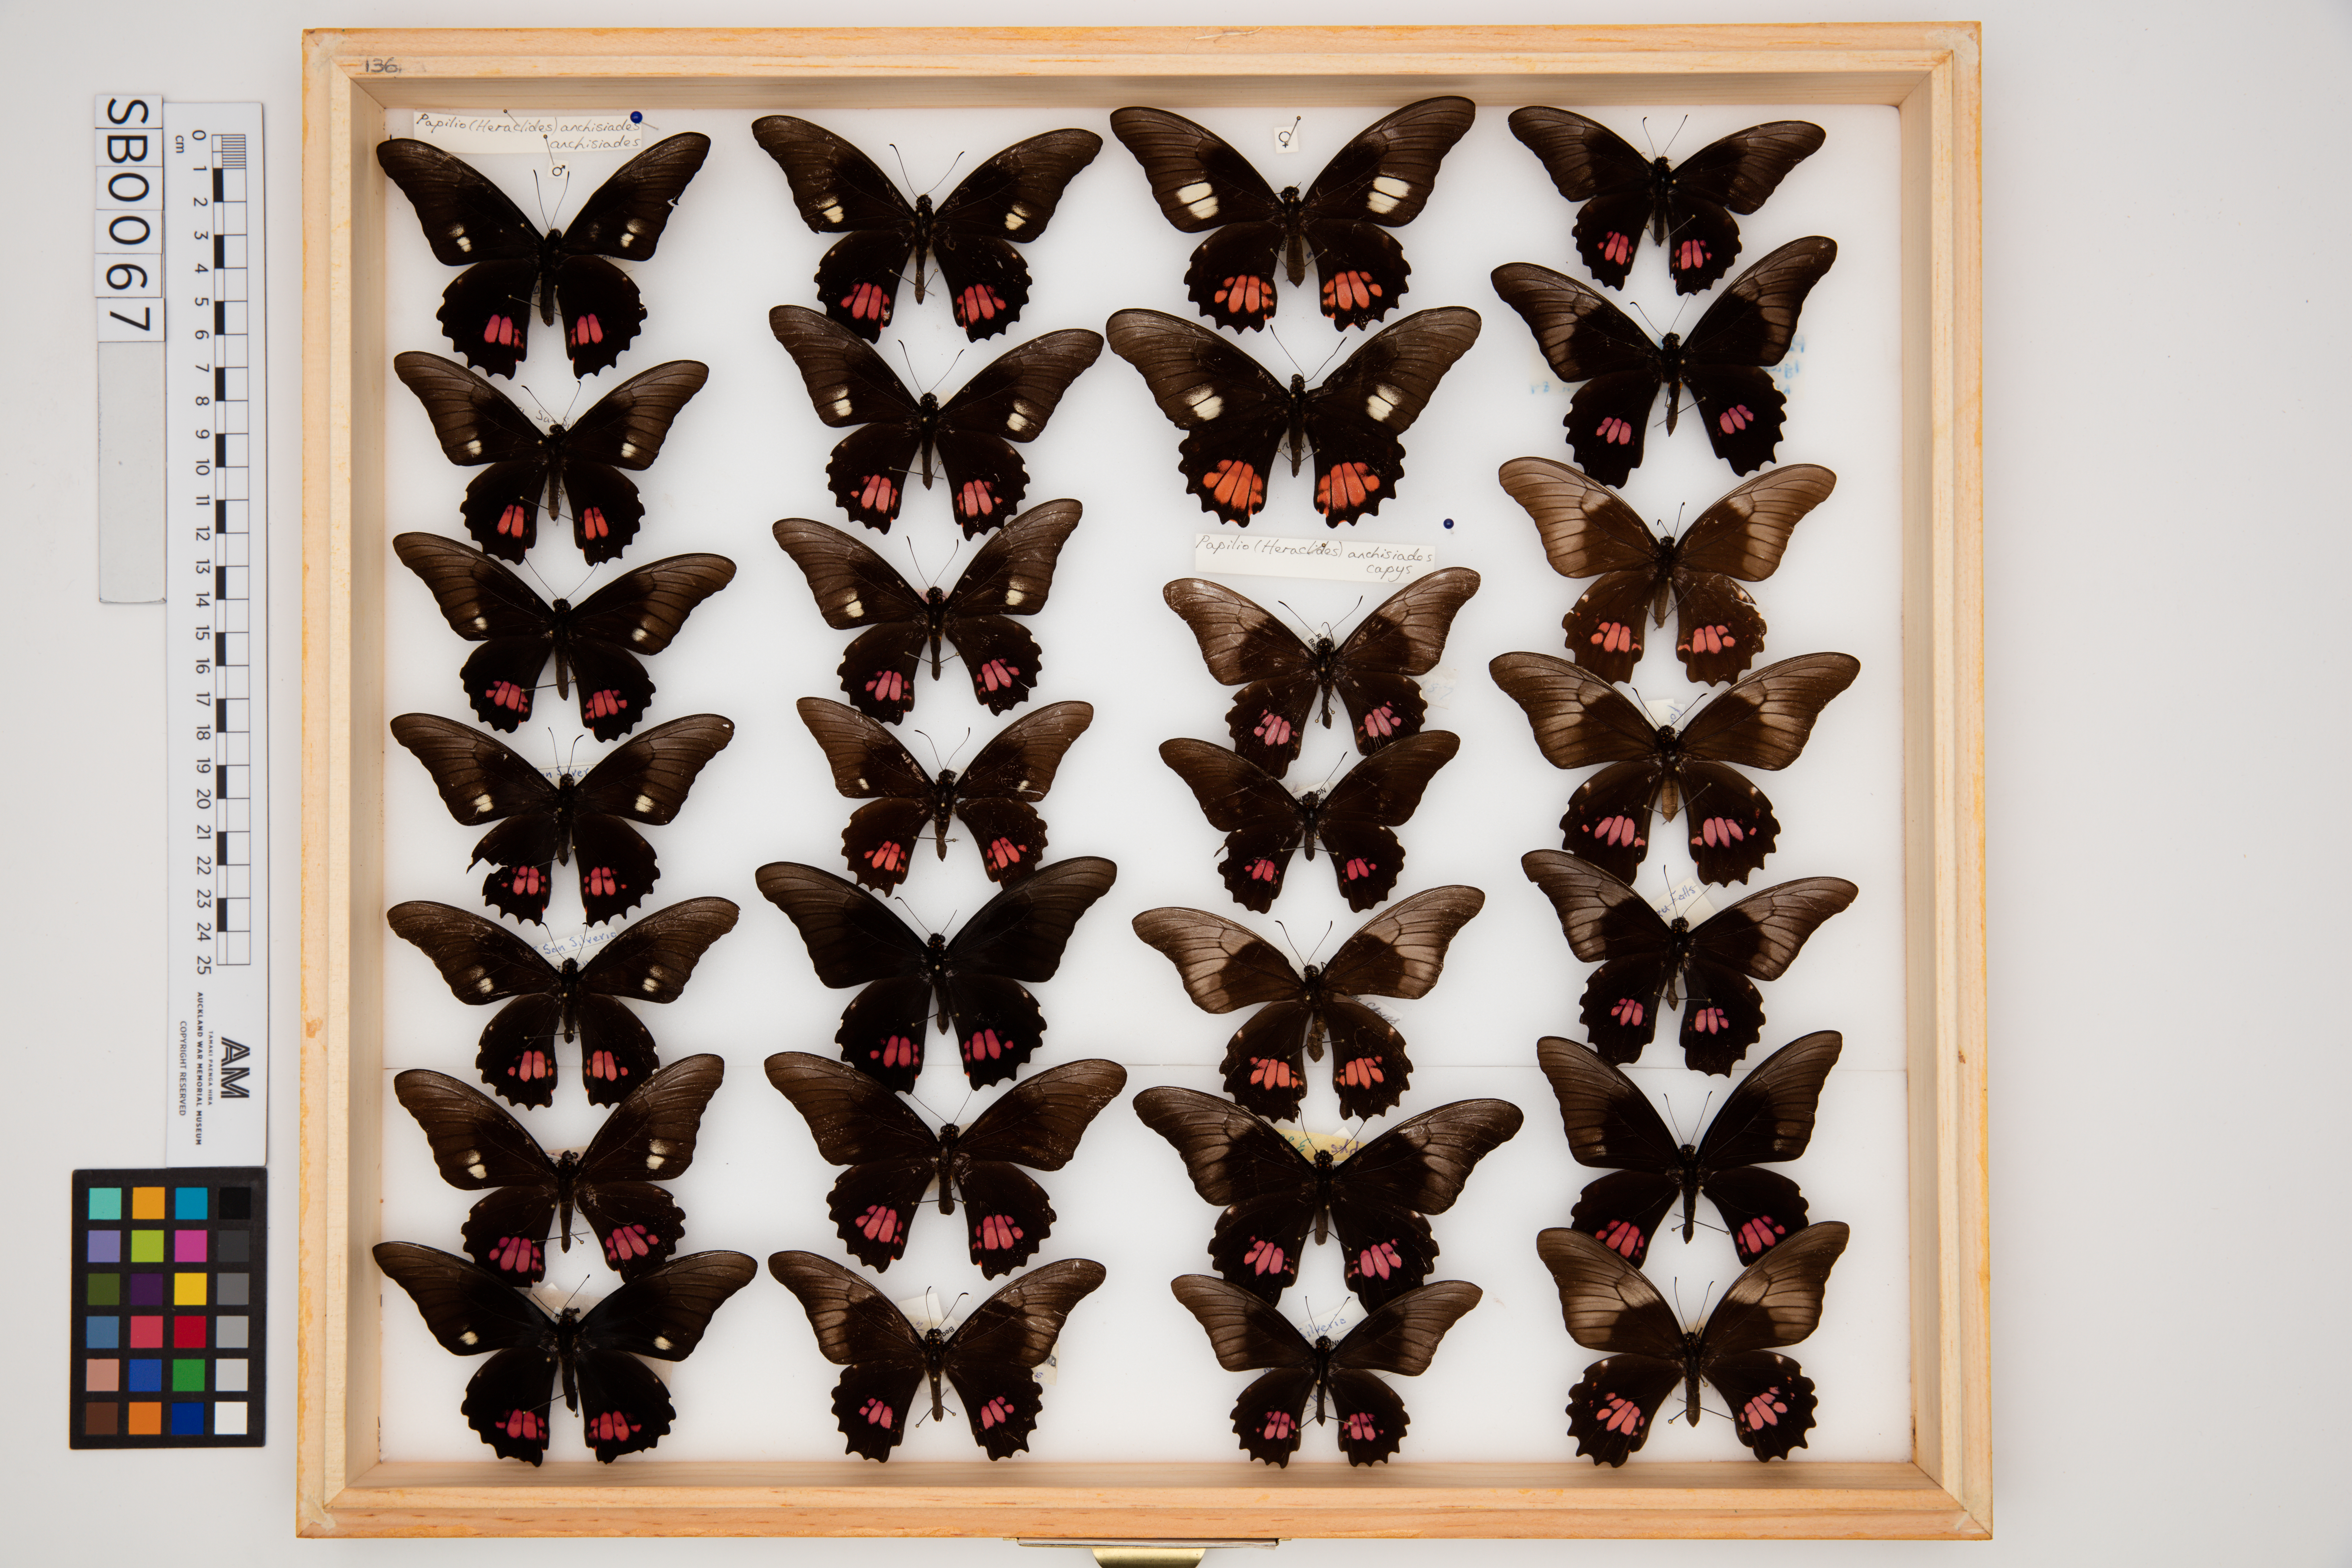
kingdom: Animalia
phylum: Arthropoda
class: Insecta
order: Lepidoptera
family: Papilionidae
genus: Papilio
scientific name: Papilio anchisiades
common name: Idaes swallowtail
